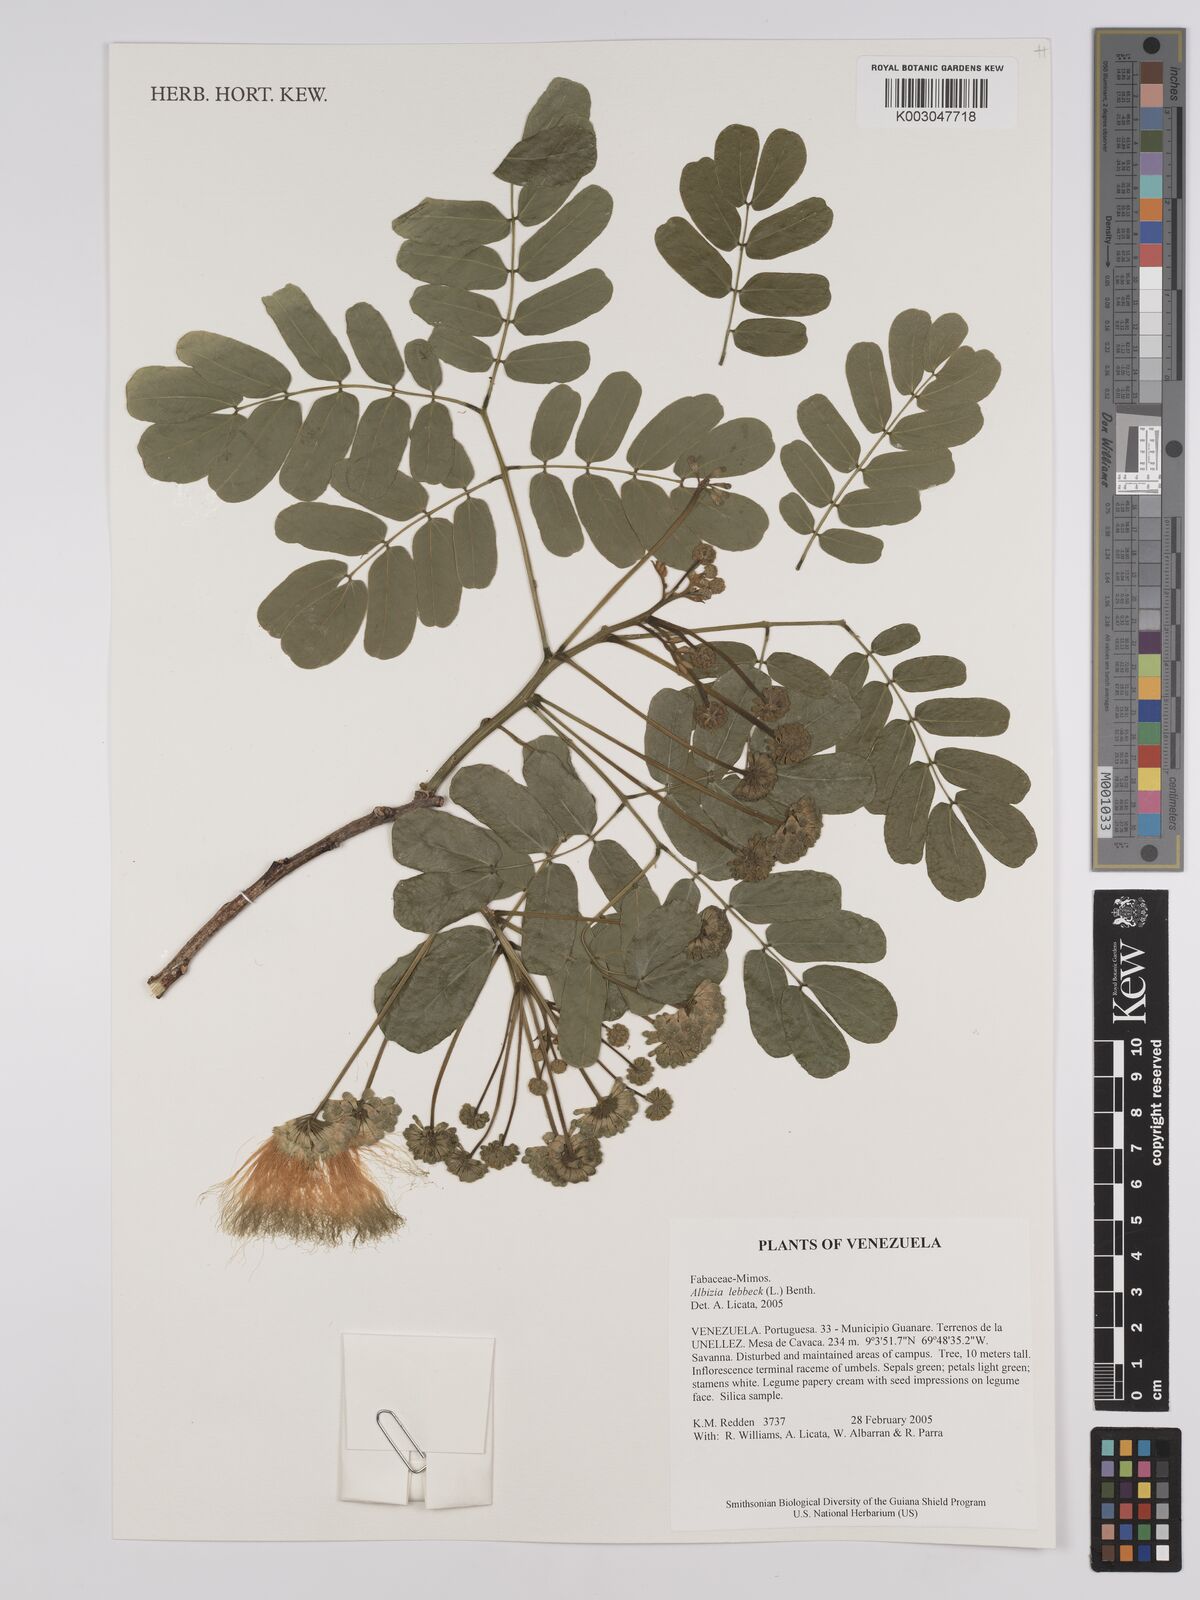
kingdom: Plantae
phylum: Tracheophyta
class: Magnoliopsida
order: Fabales
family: Fabaceae
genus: Albizia
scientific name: Albizia lebbeck
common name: Woman's tongue
